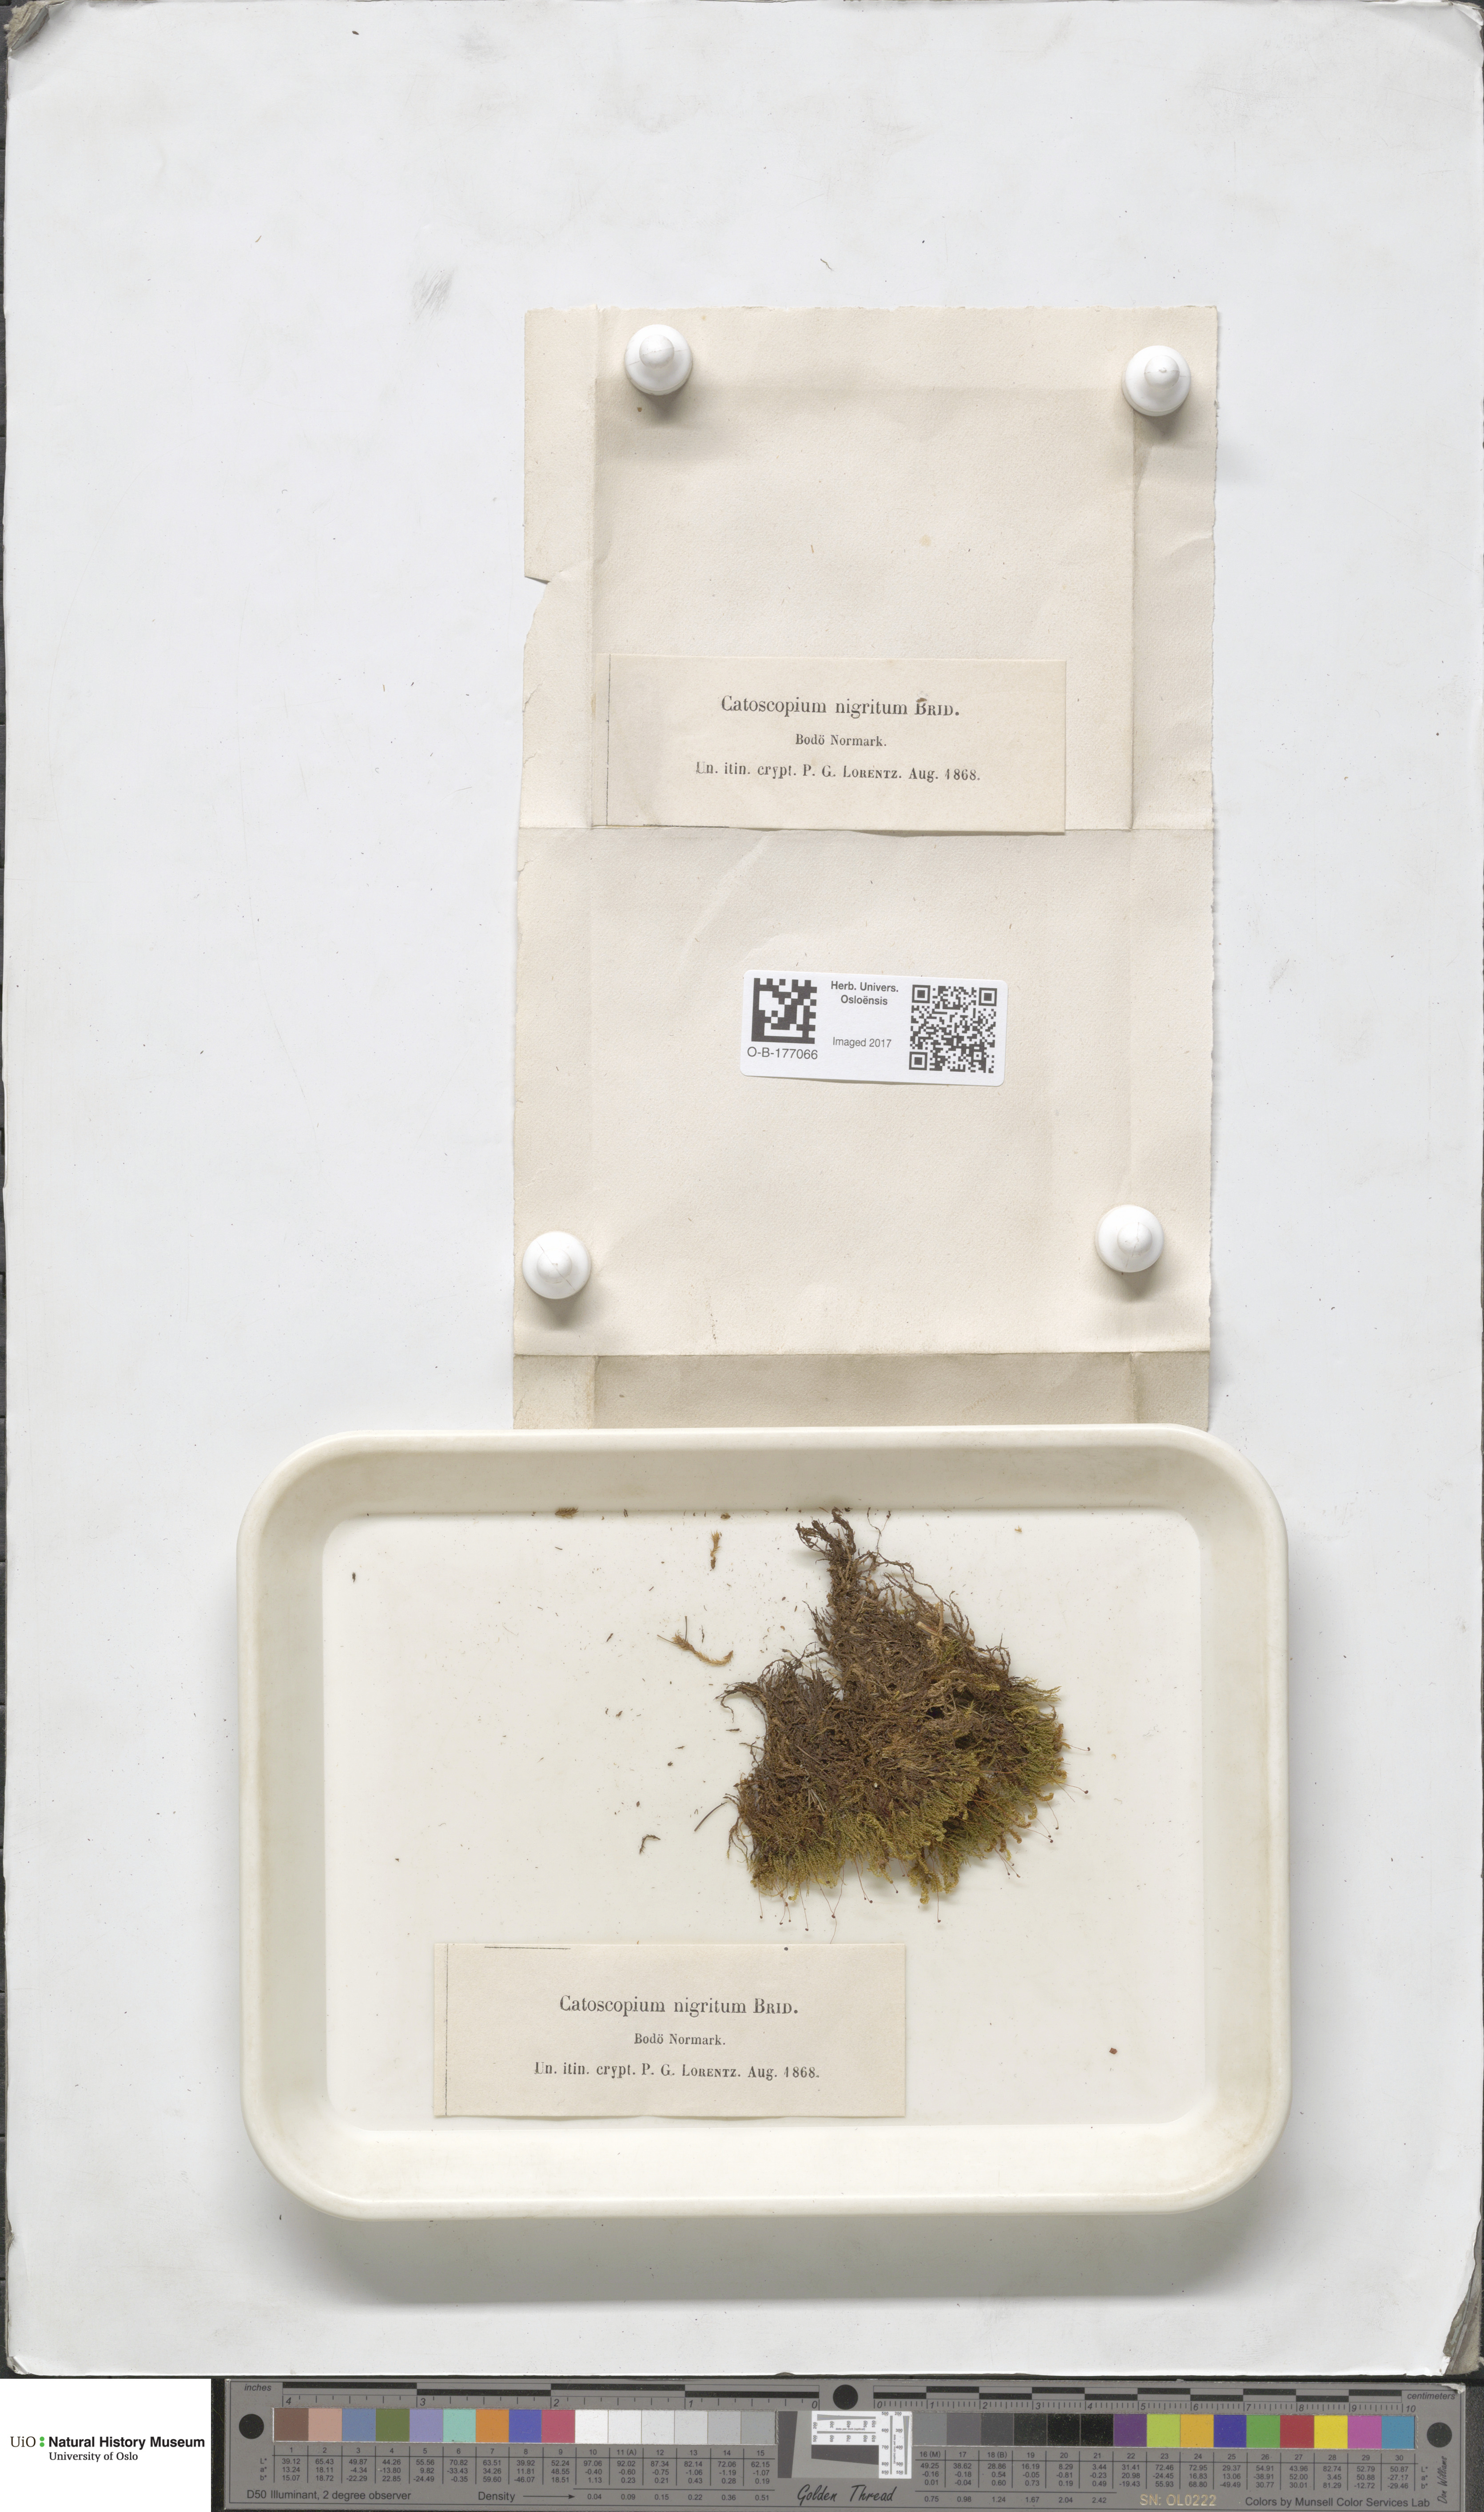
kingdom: Plantae
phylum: Bryophyta
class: Bryopsida
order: Catoscopiales
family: Catoscopiaceae
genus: Catoscopium
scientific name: Catoscopium nigritum
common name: Black golf club moss
